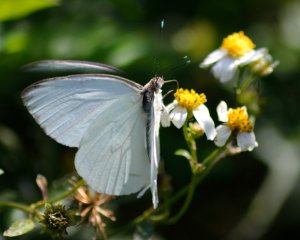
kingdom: Animalia
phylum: Arthropoda
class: Insecta
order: Lepidoptera
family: Pieridae
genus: Ascia
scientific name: Ascia monuste
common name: Great Southern White
